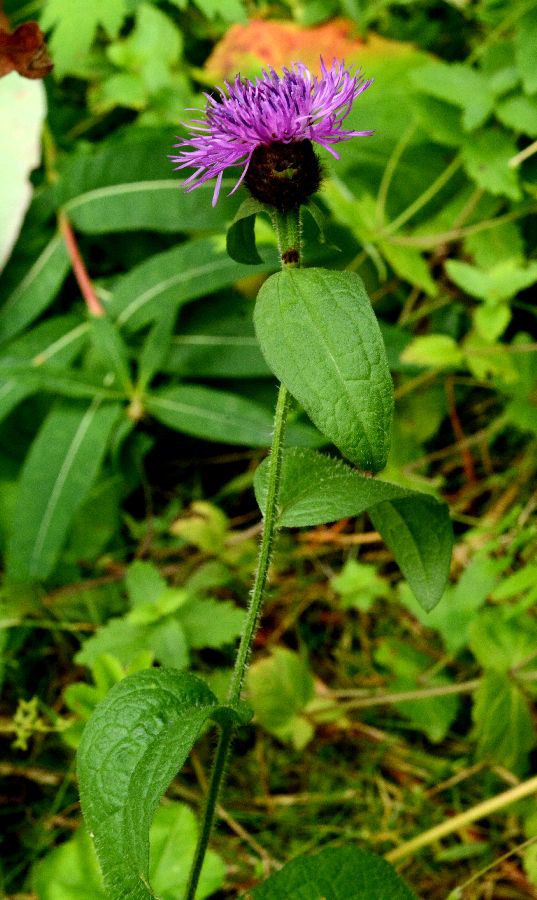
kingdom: Plantae
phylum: Tracheophyta
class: Magnoliopsida
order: Asterales
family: Asteraceae
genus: Centaurea
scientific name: Centaurea phrygia
